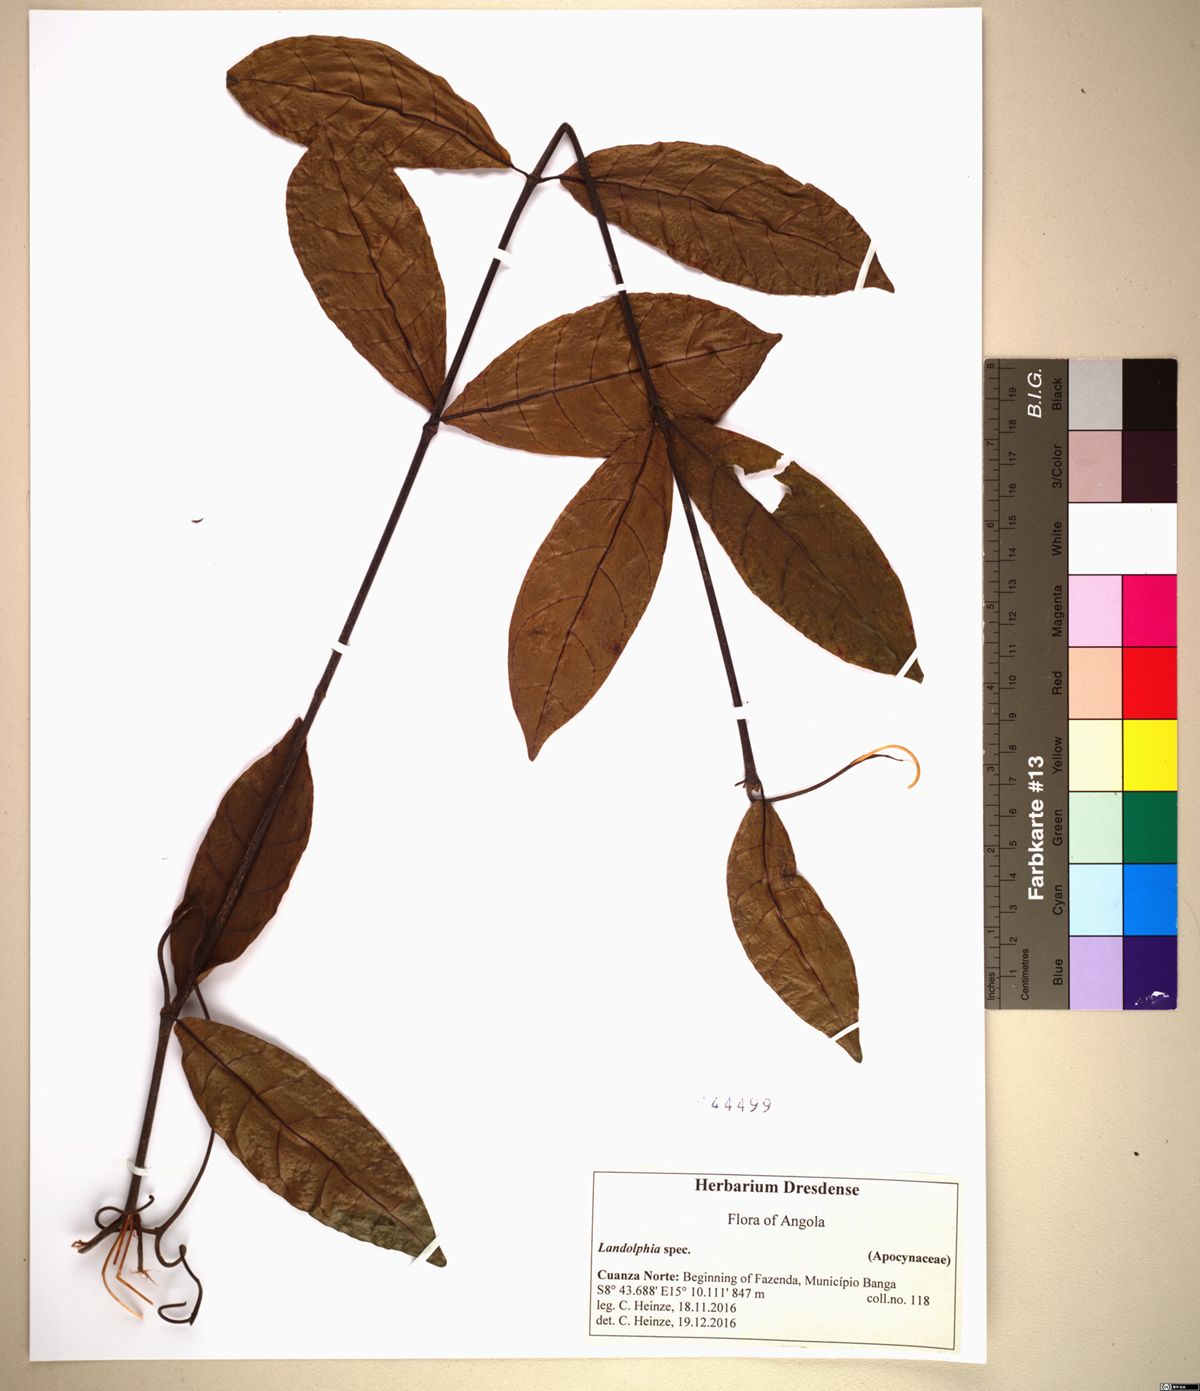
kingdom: Plantae
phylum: Tracheophyta
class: Magnoliopsida
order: Gentianales
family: Apocynaceae
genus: Landolphia
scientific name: Landolphia
